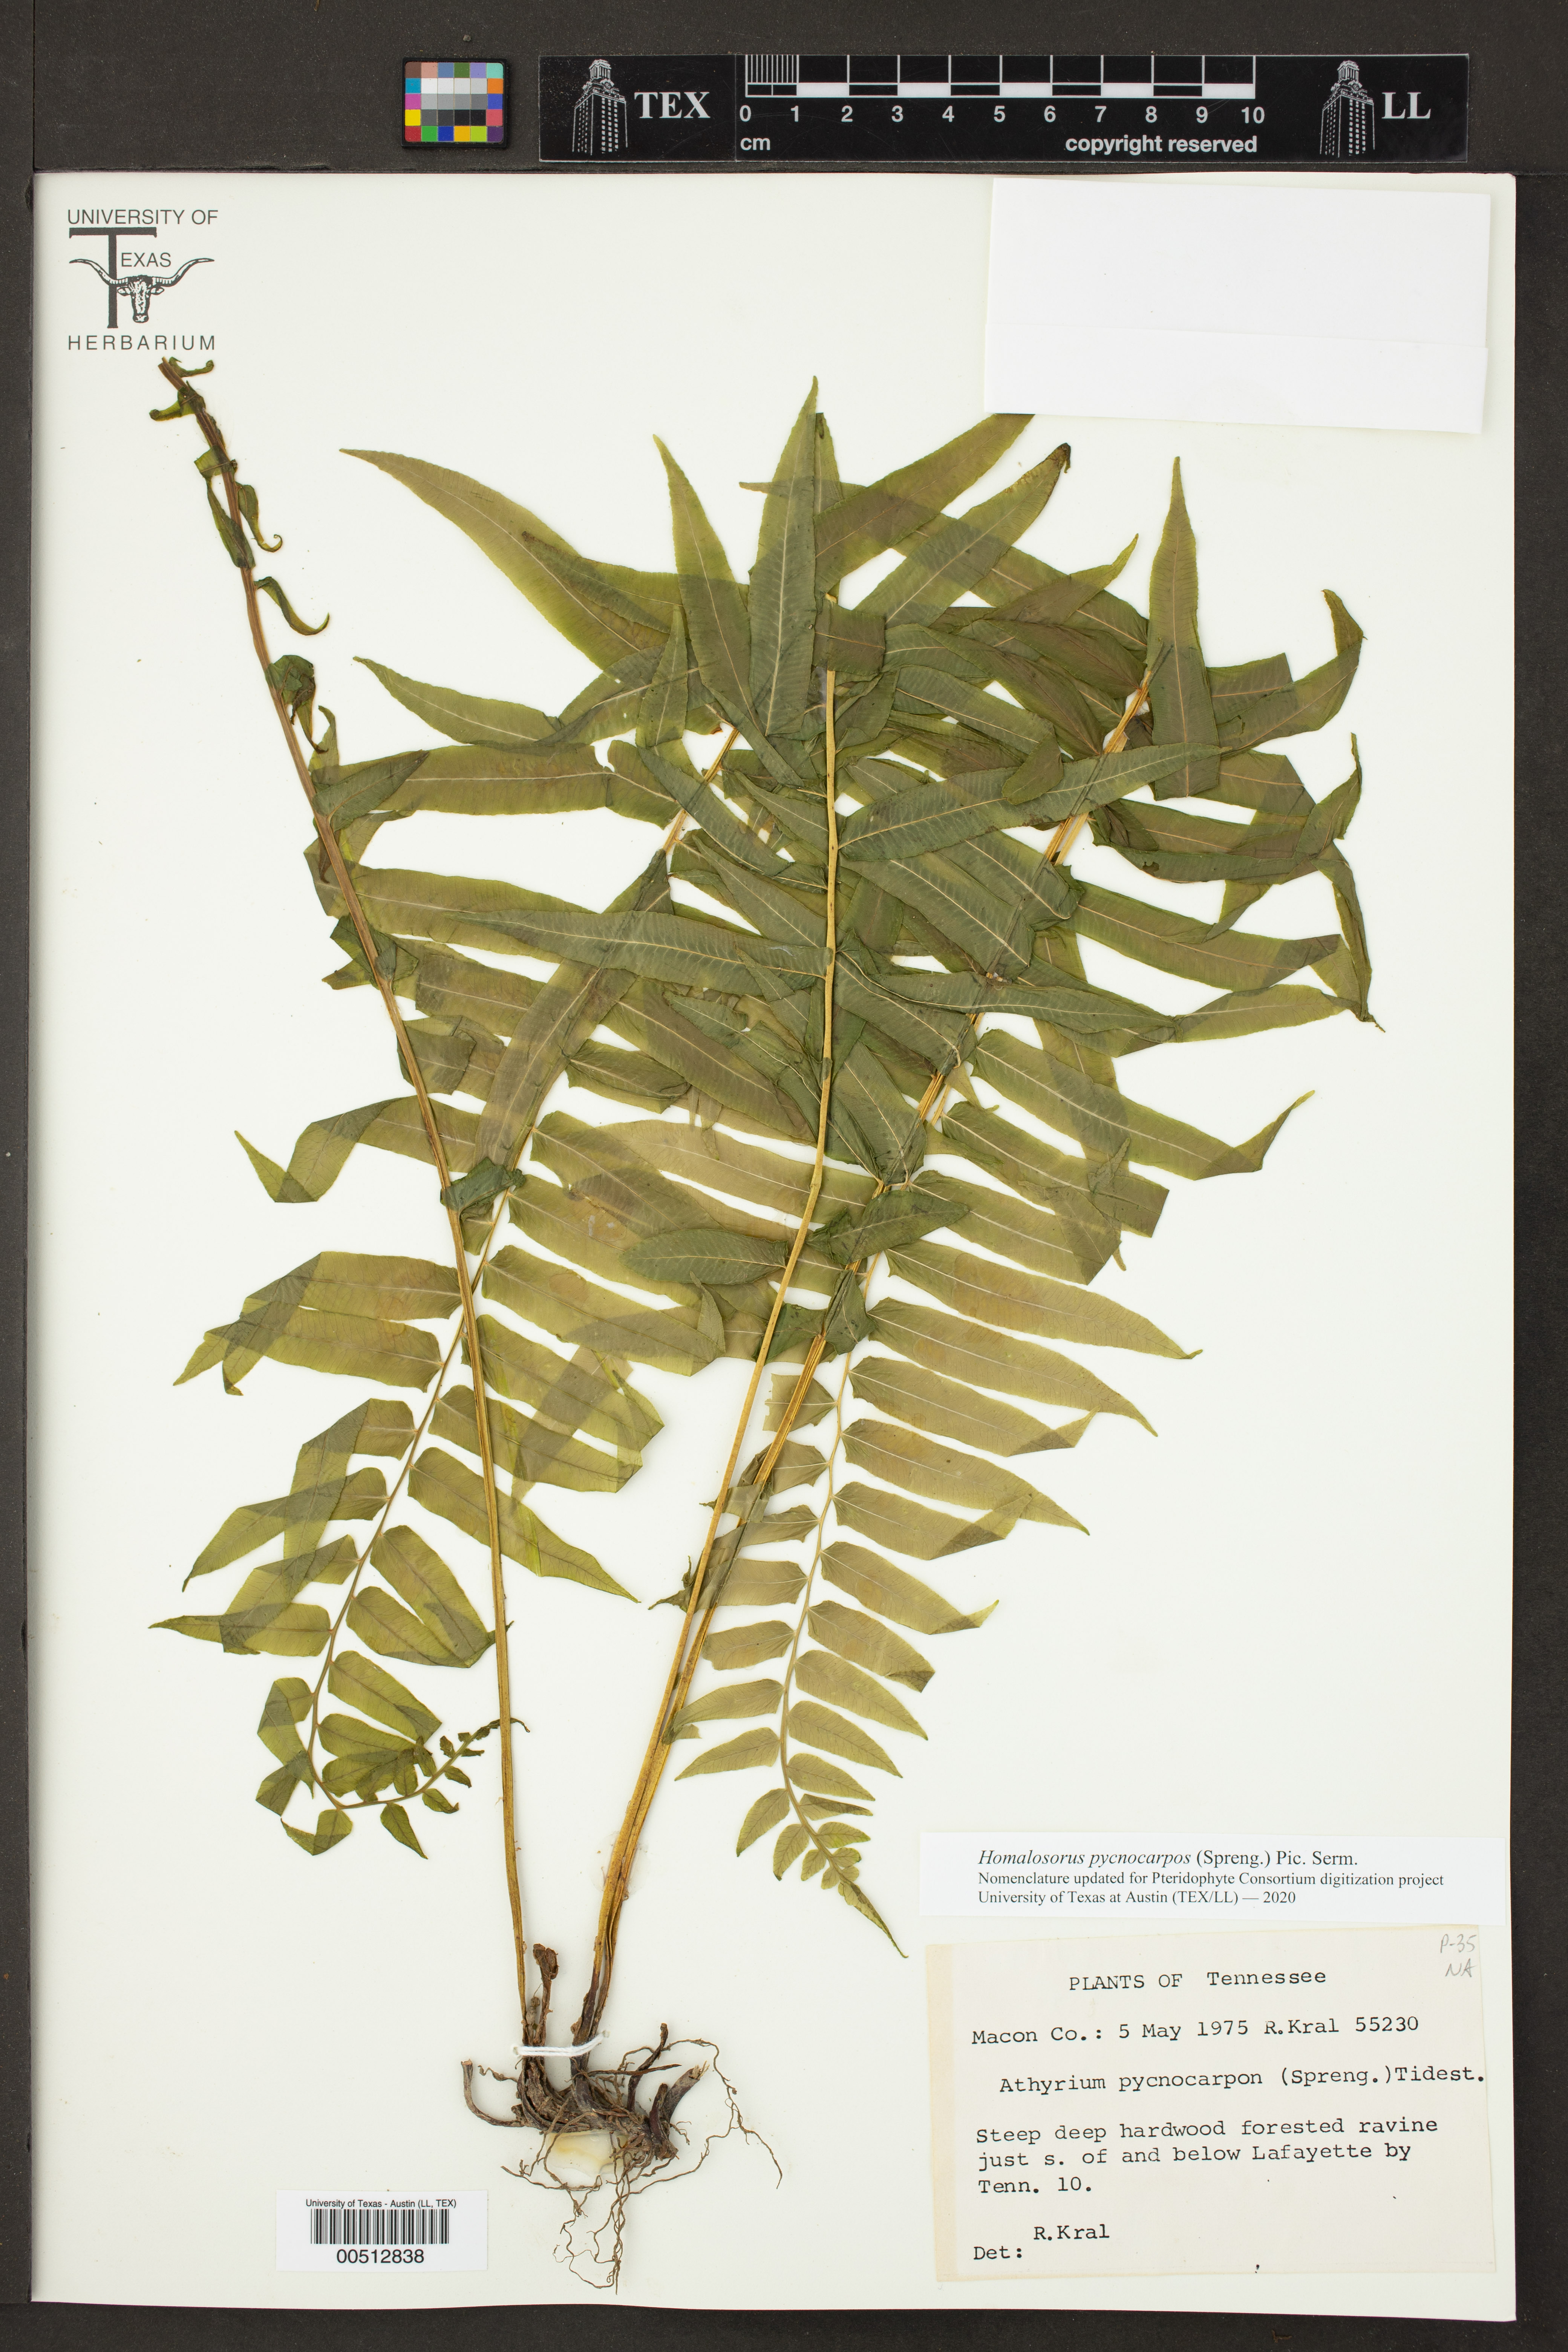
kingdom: Plantae
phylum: Tracheophyta
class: Polypodiopsida
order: Polypodiales
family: Diplaziopsidaceae
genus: Homalosorus
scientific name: Homalosorus pycnocarpos
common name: Glade fern
